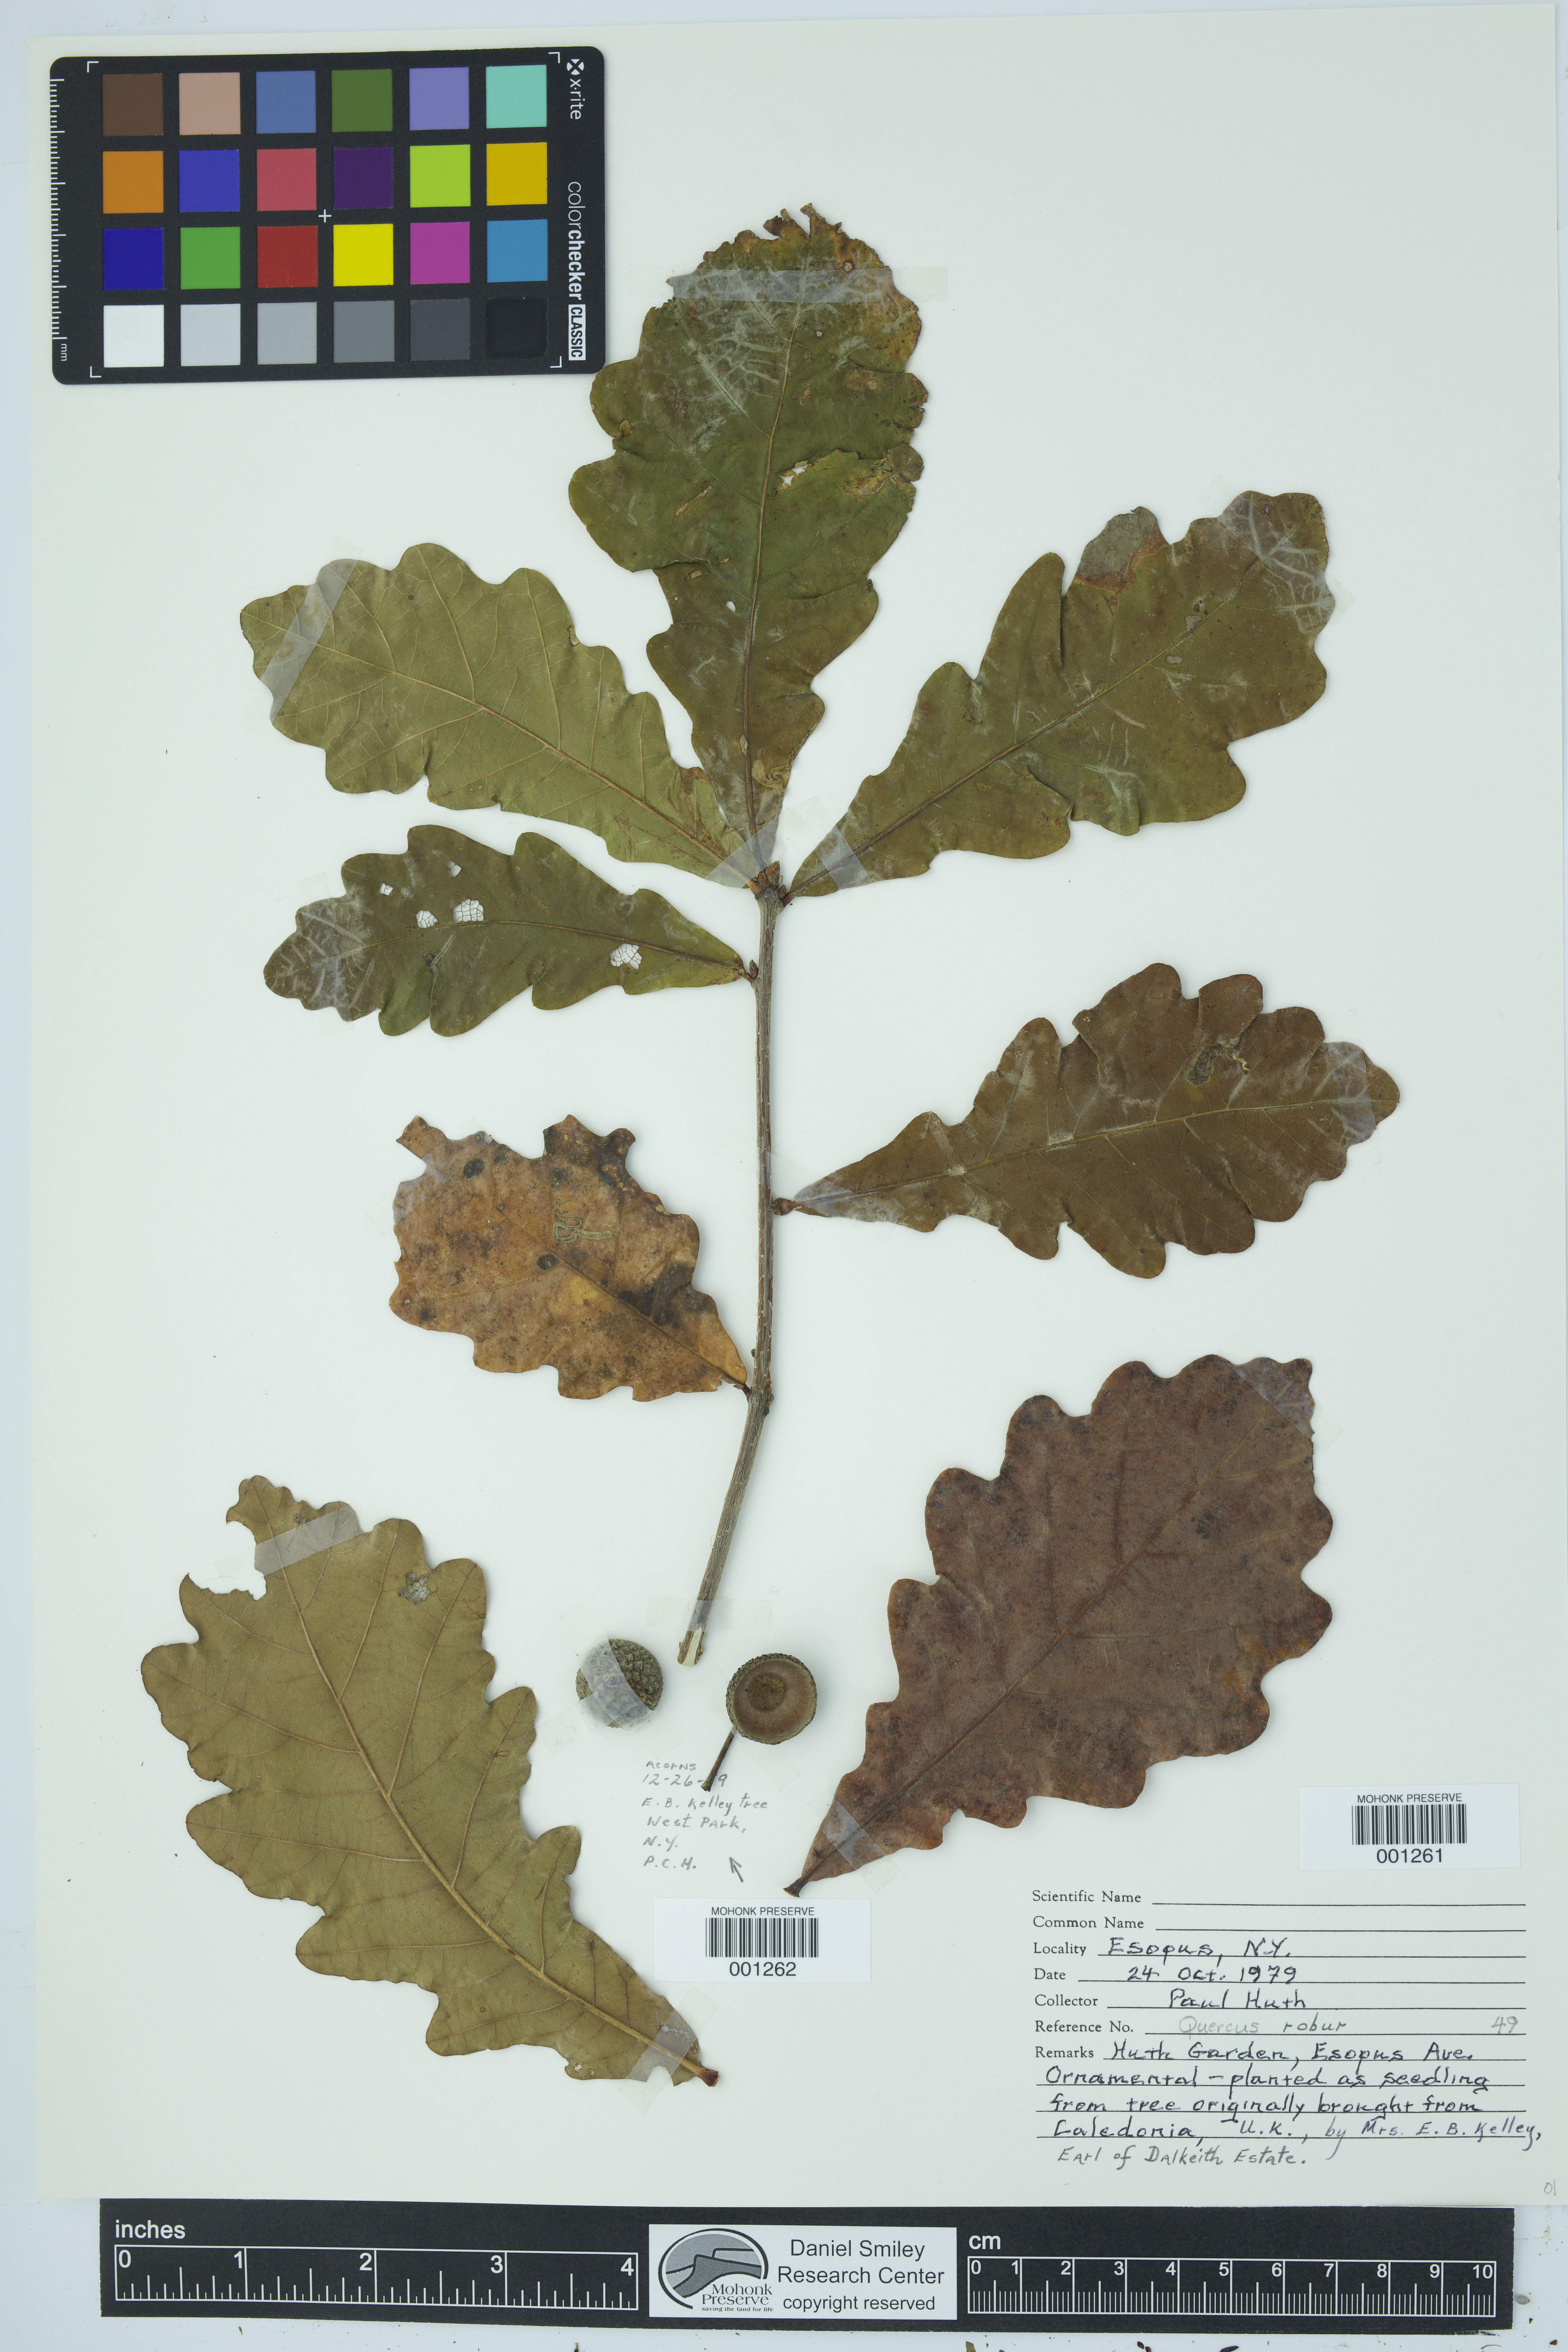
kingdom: Plantae
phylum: Tracheophyta
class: Magnoliopsida
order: Fagales
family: Fagaceae
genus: Quercus
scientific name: Quercus robur
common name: Pedunculate oak
